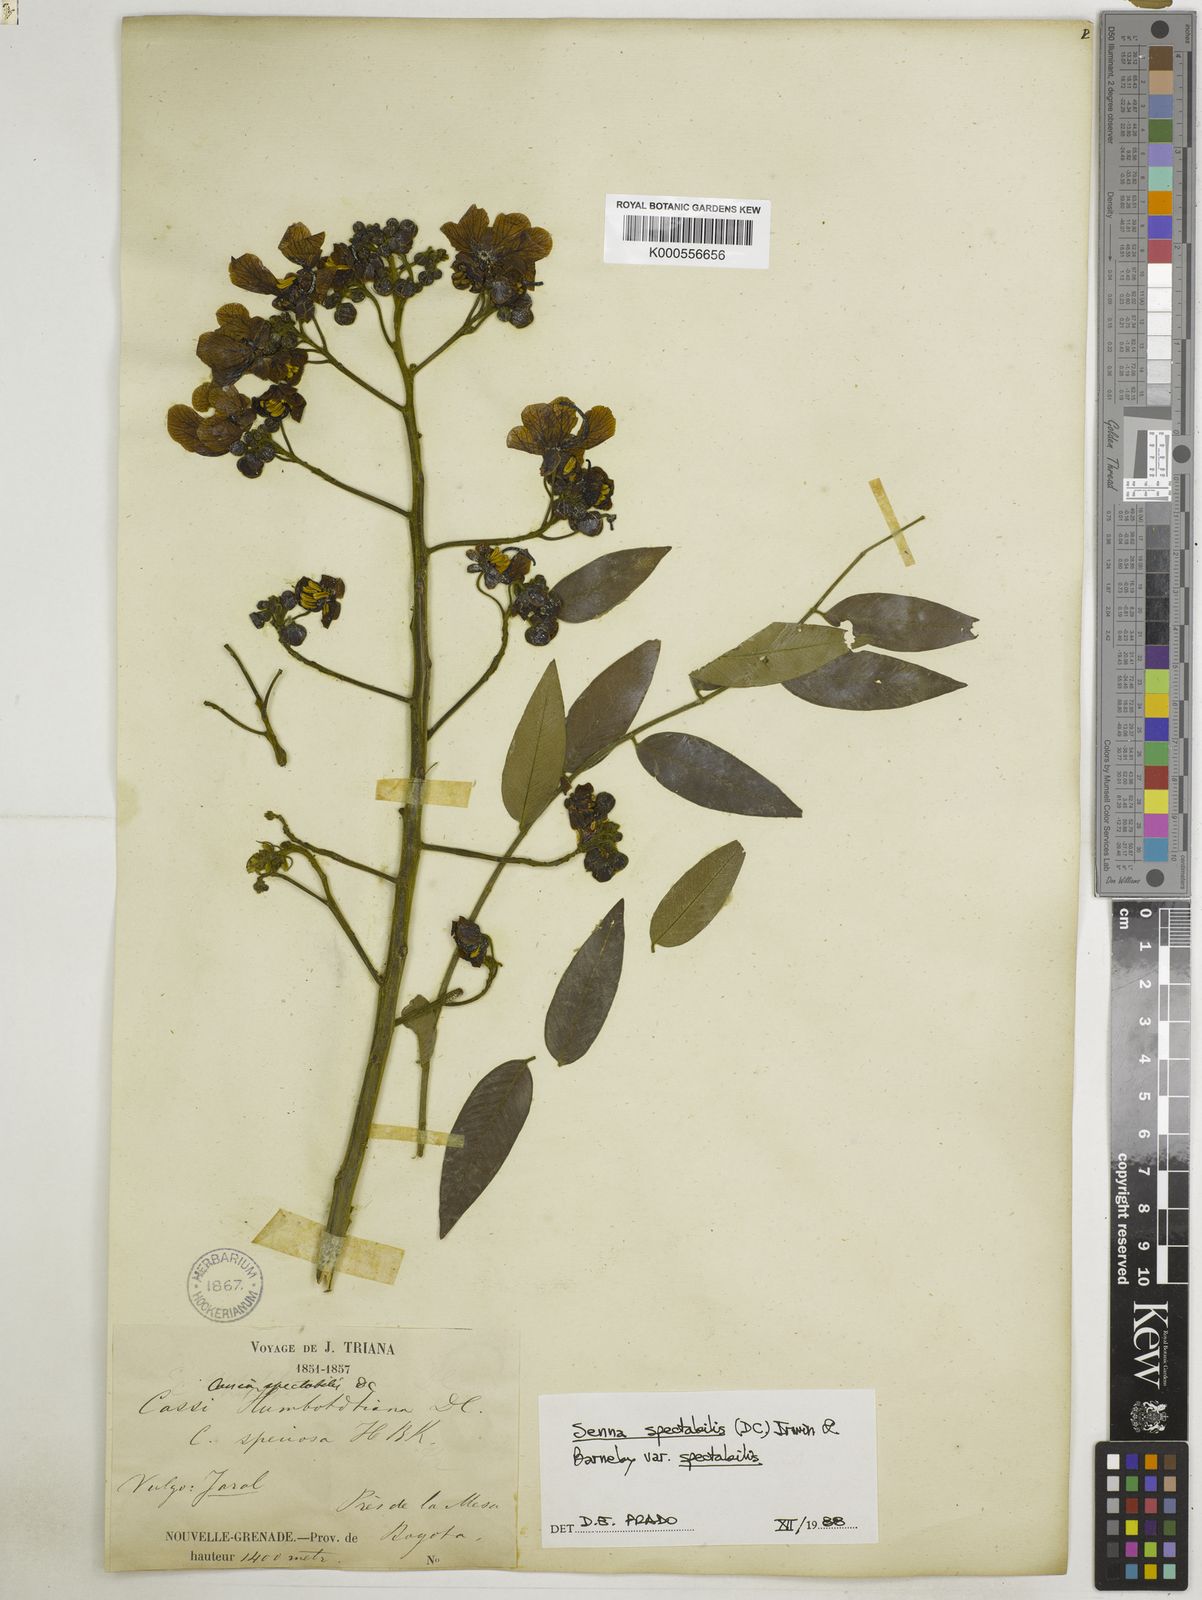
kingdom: Plantae
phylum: Tracheophyta
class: Magnoliopsida
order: Fabales
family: Fabaceae
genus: Senna
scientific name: Senna spectabilis
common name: Casia amarilla
